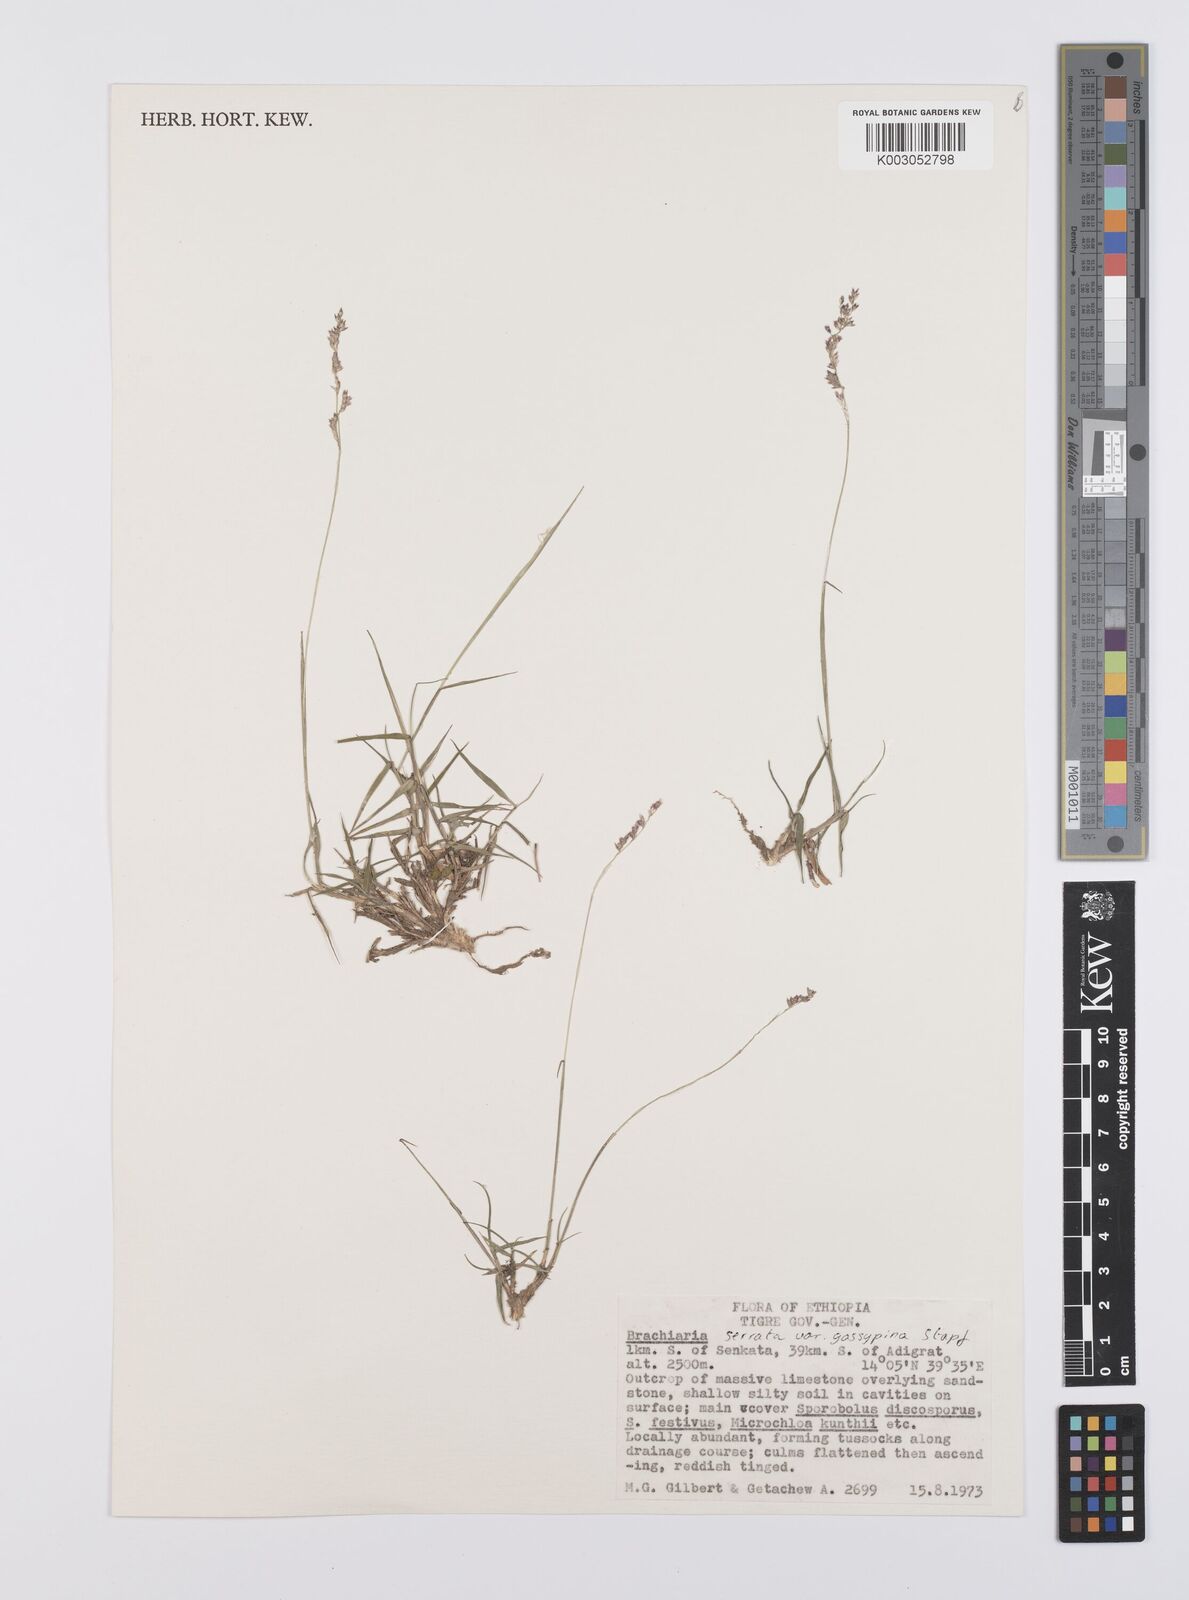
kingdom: Plantae
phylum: Tracheophyta
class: Liliopsida
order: Poales
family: Poaceae
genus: Urochloa
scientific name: Urochloa serrata
